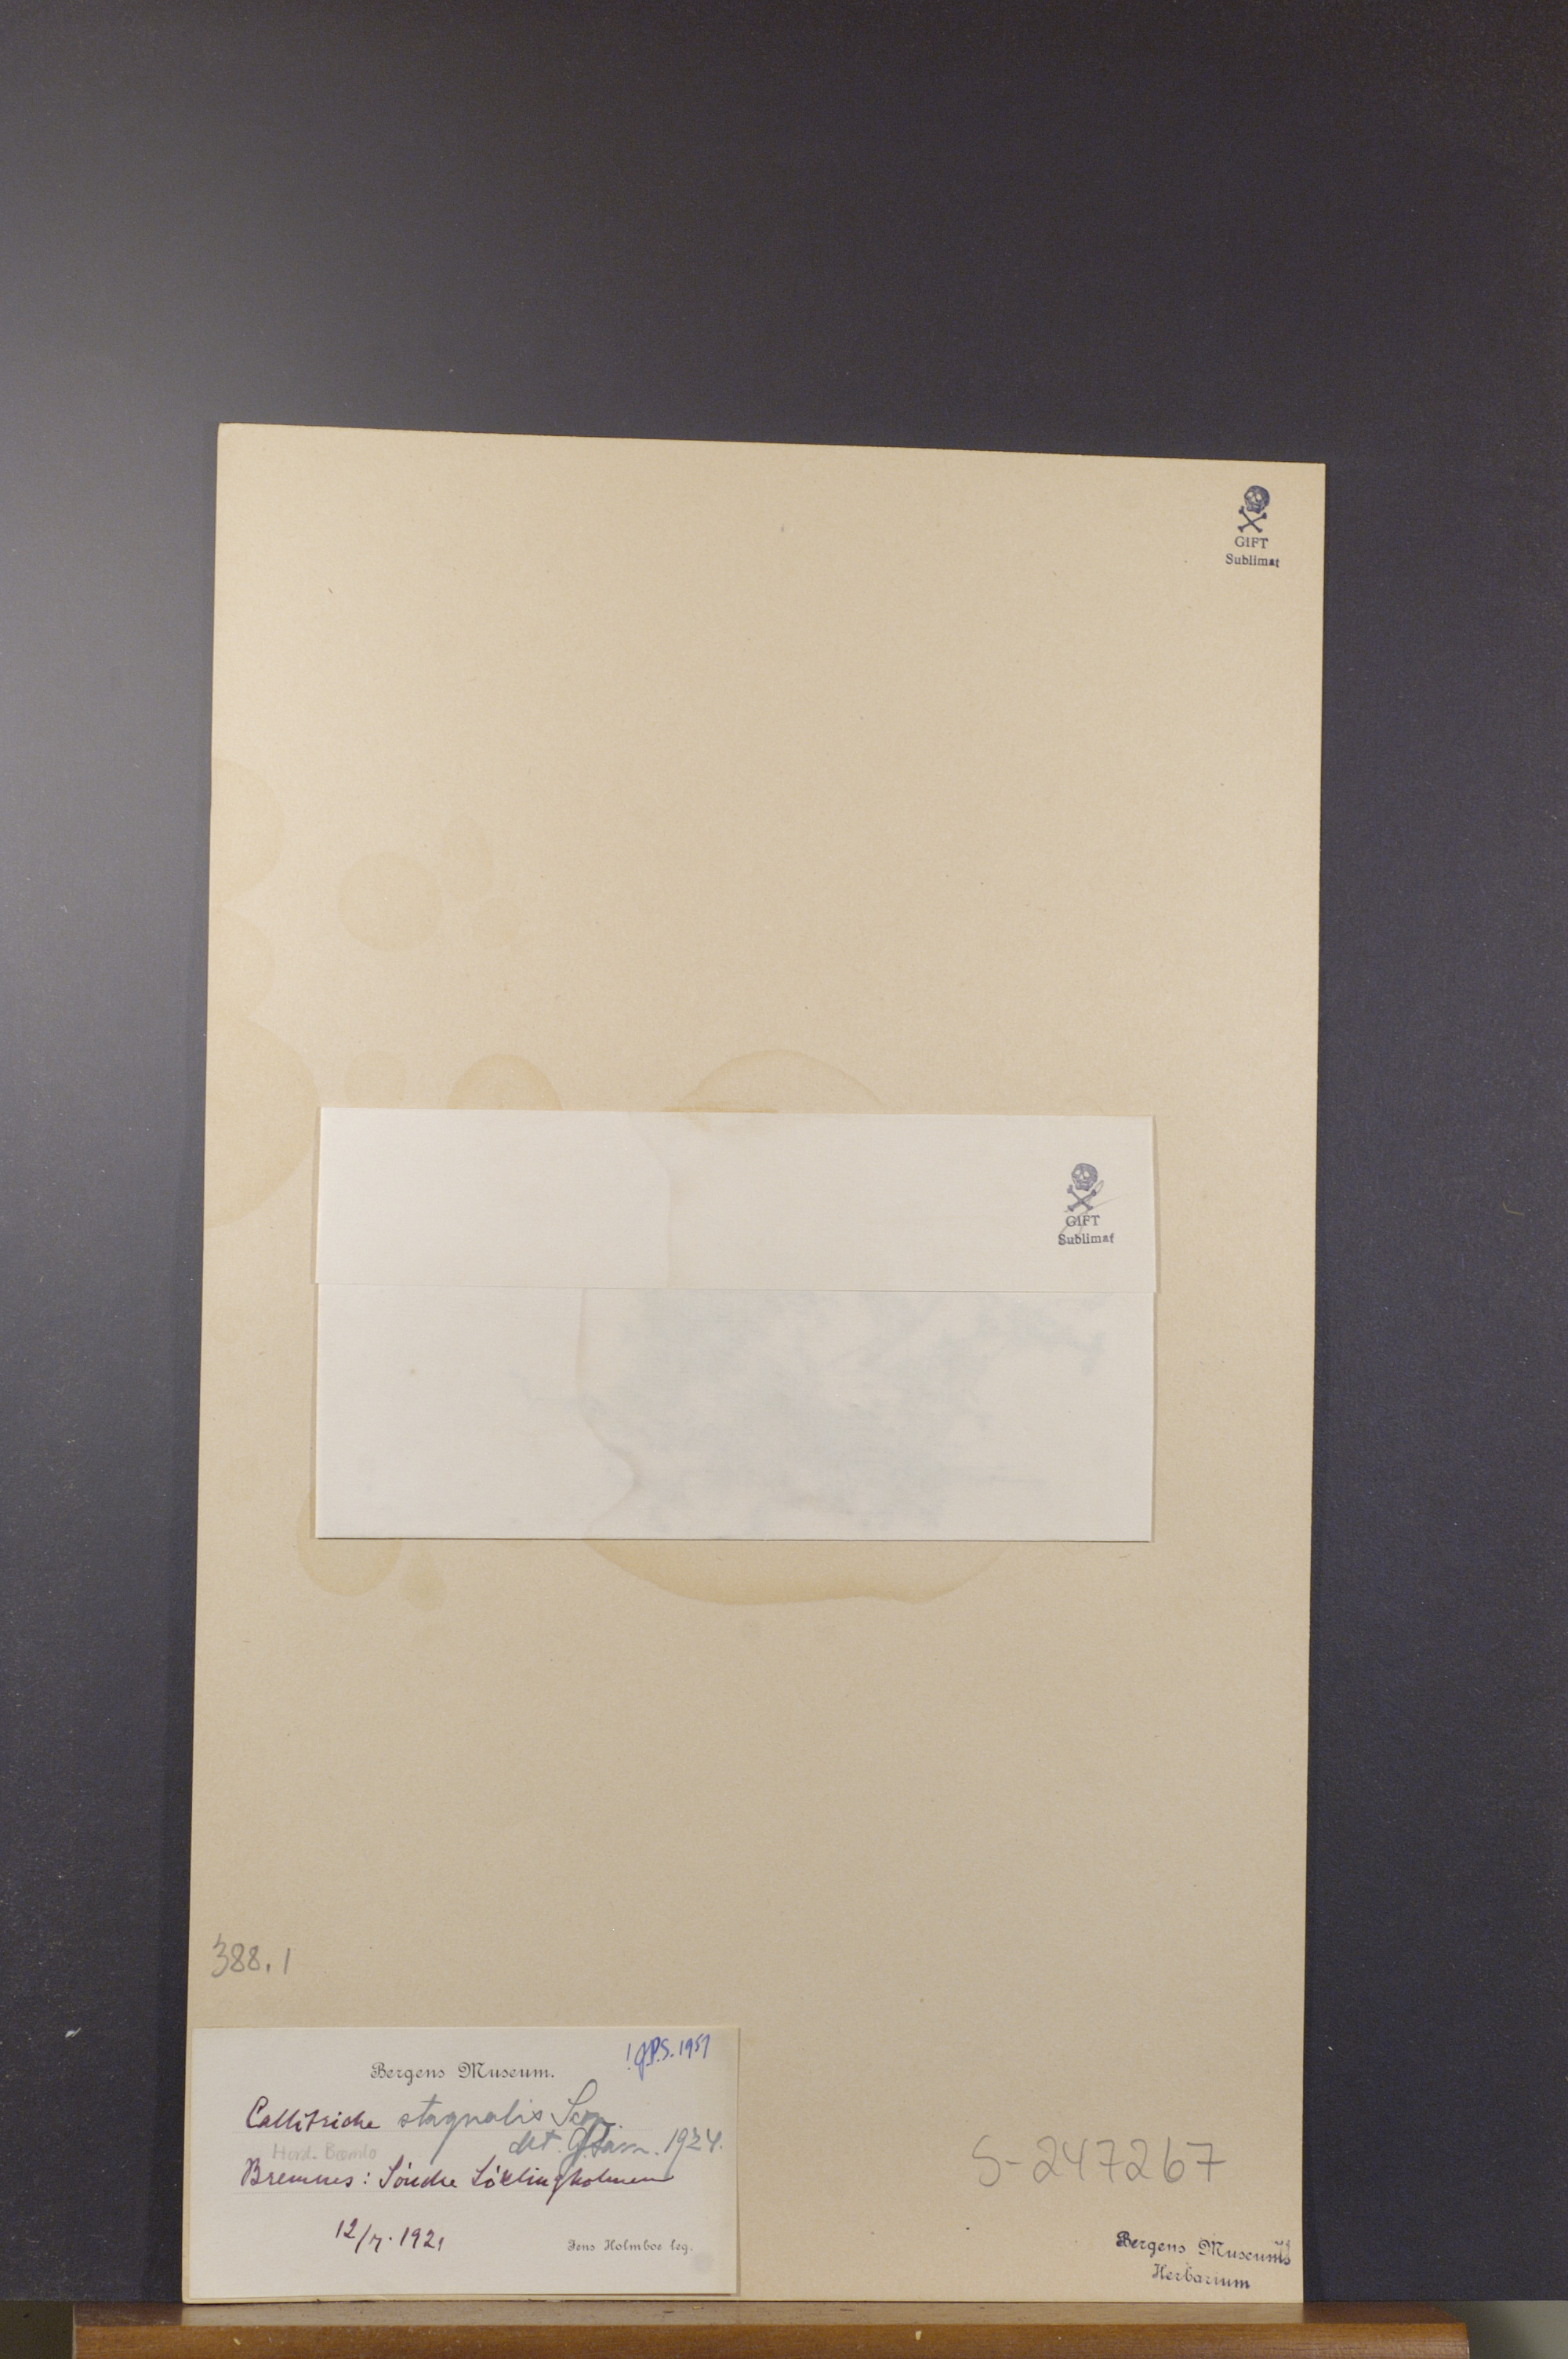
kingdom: Plantae
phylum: Tracheophyta
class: Magnoliopsida
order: Lamiales
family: Plantaginaceae
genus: Callitriche
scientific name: Callitriche stagnalis
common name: Common water-starwort
